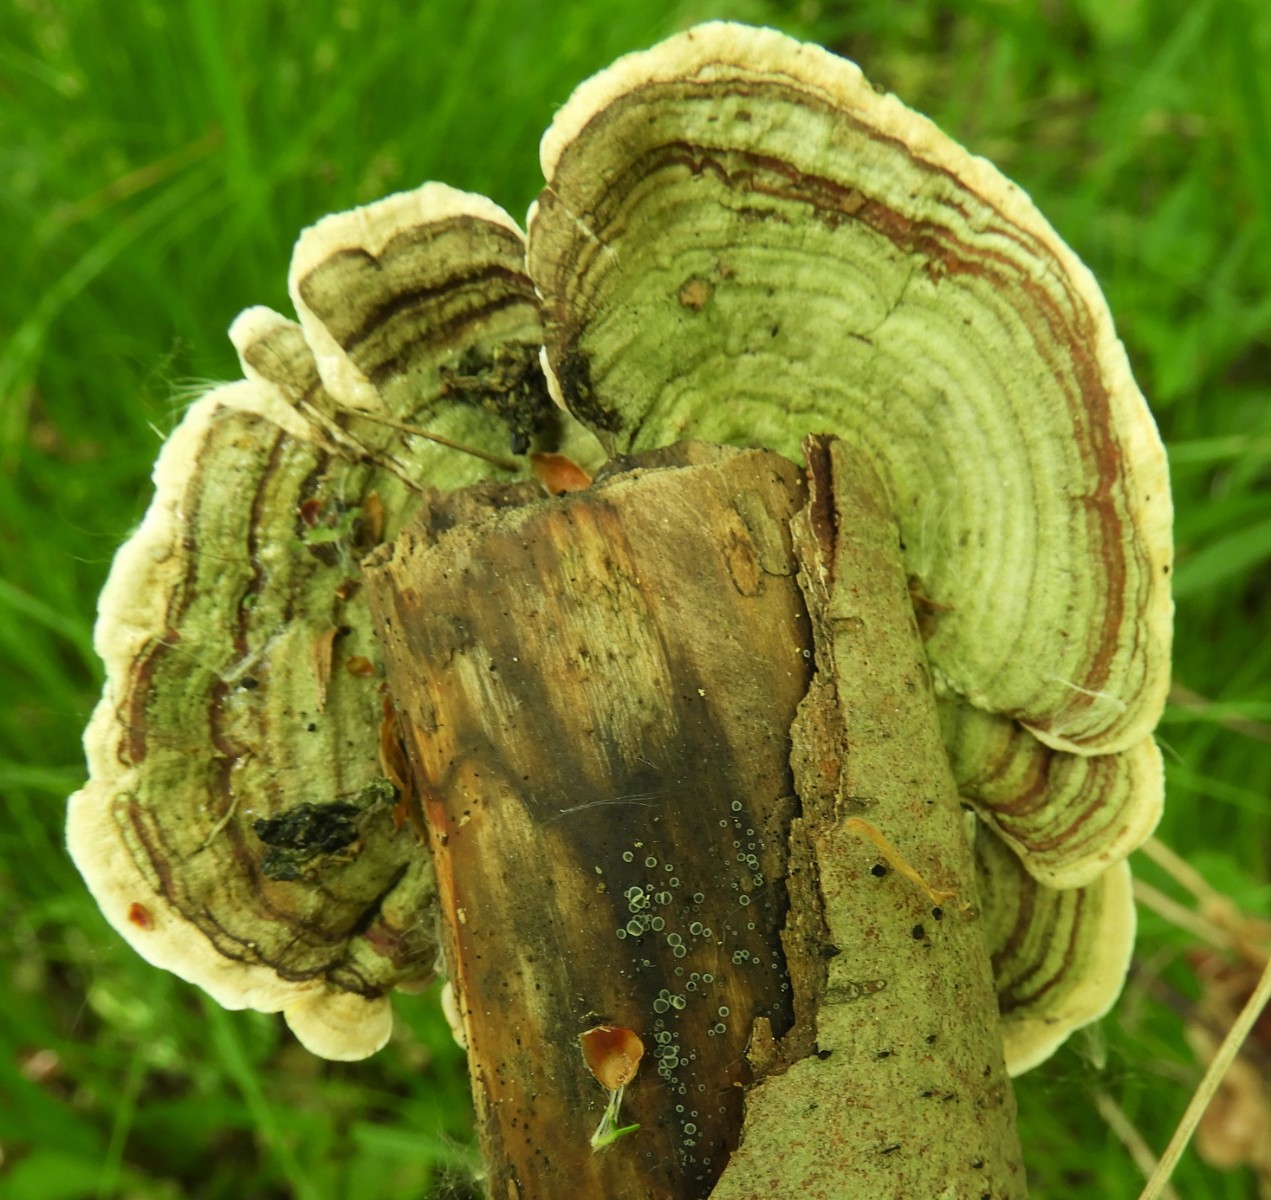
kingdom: Fungi
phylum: Basidiomycota
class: Agaricomycetes
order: Russulales
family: Stereaceae
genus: Stereum
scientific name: Stereum subtomentosum
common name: smuk lædersvamp
